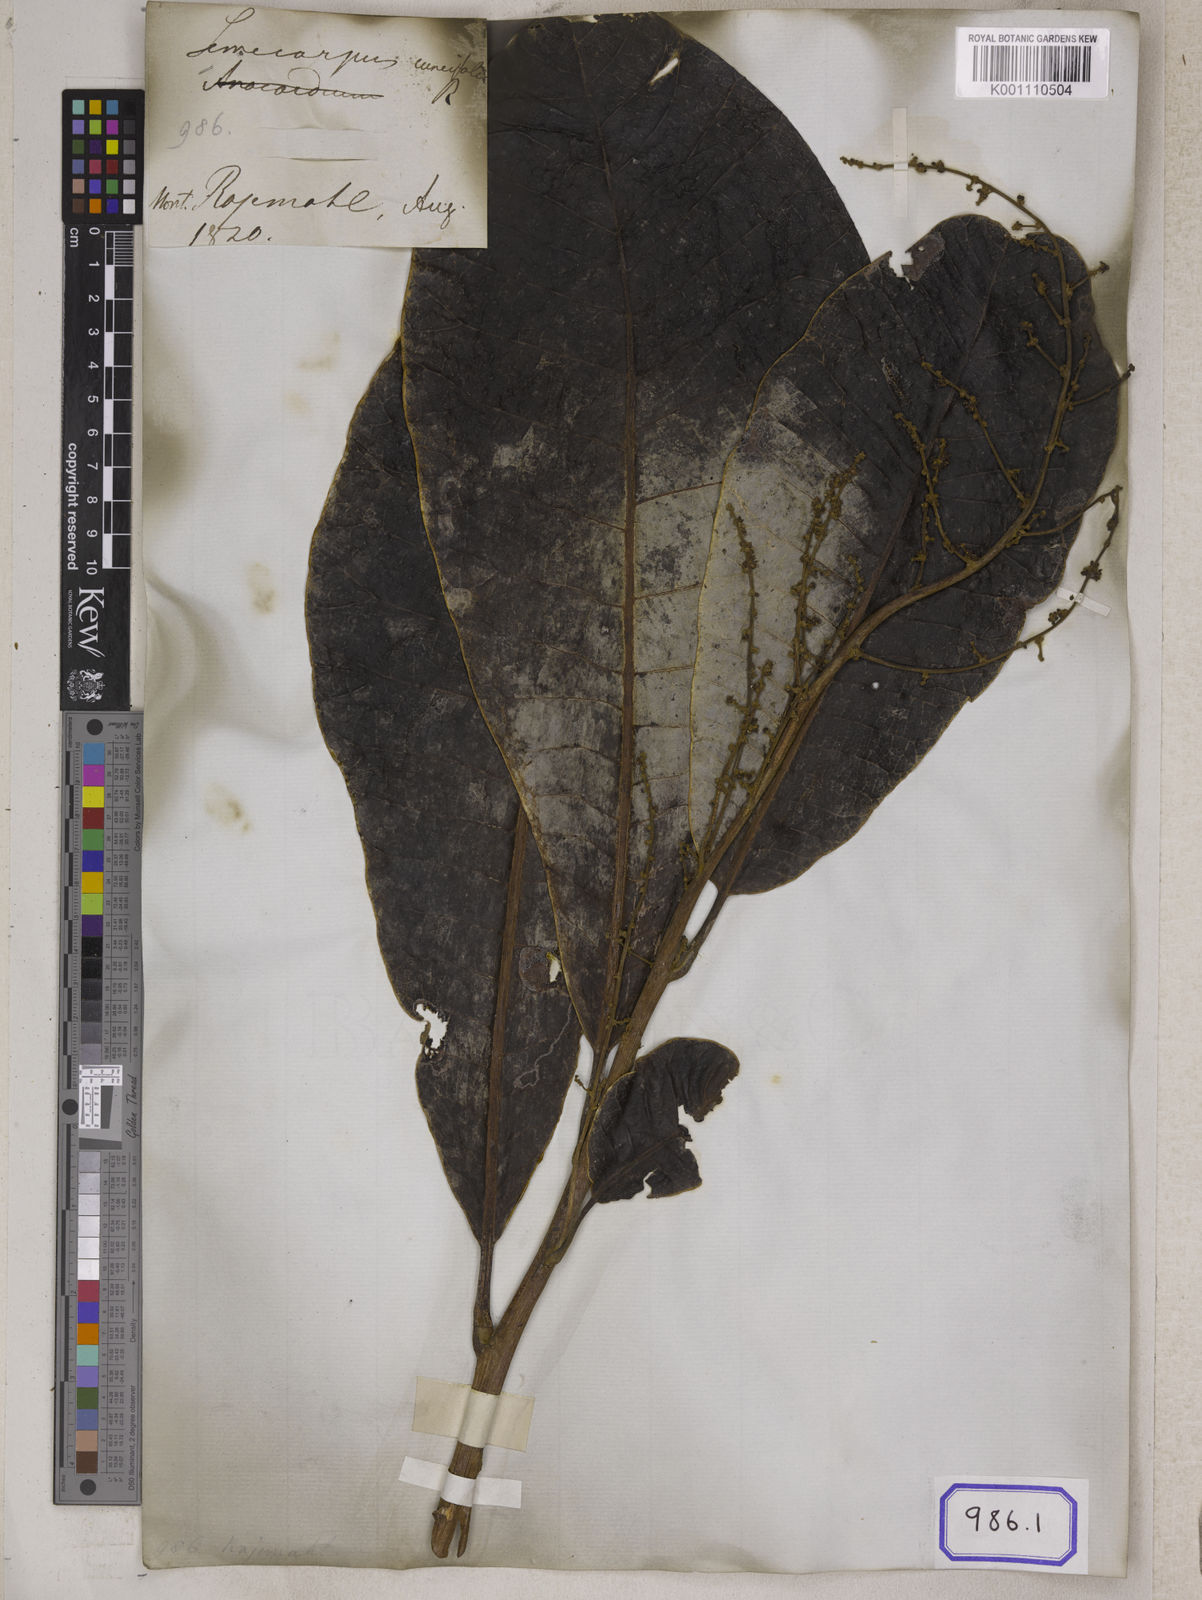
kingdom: Plantae
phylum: Tracheophyta
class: Magnoliopsida
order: Sapindales
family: Anacardiaceae
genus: Semecarpus
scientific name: Semecarpus anacardium
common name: Marking nut-tree
